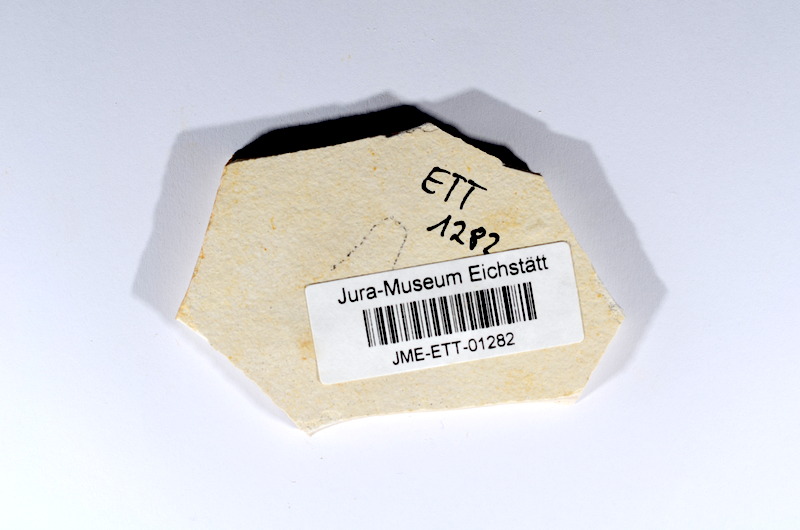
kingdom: Animalia
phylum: Chordata
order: Salmoniformes
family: Orthogonikleithridae
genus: Orthogonikleithrus
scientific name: Orthogonikleithrus hoelli
